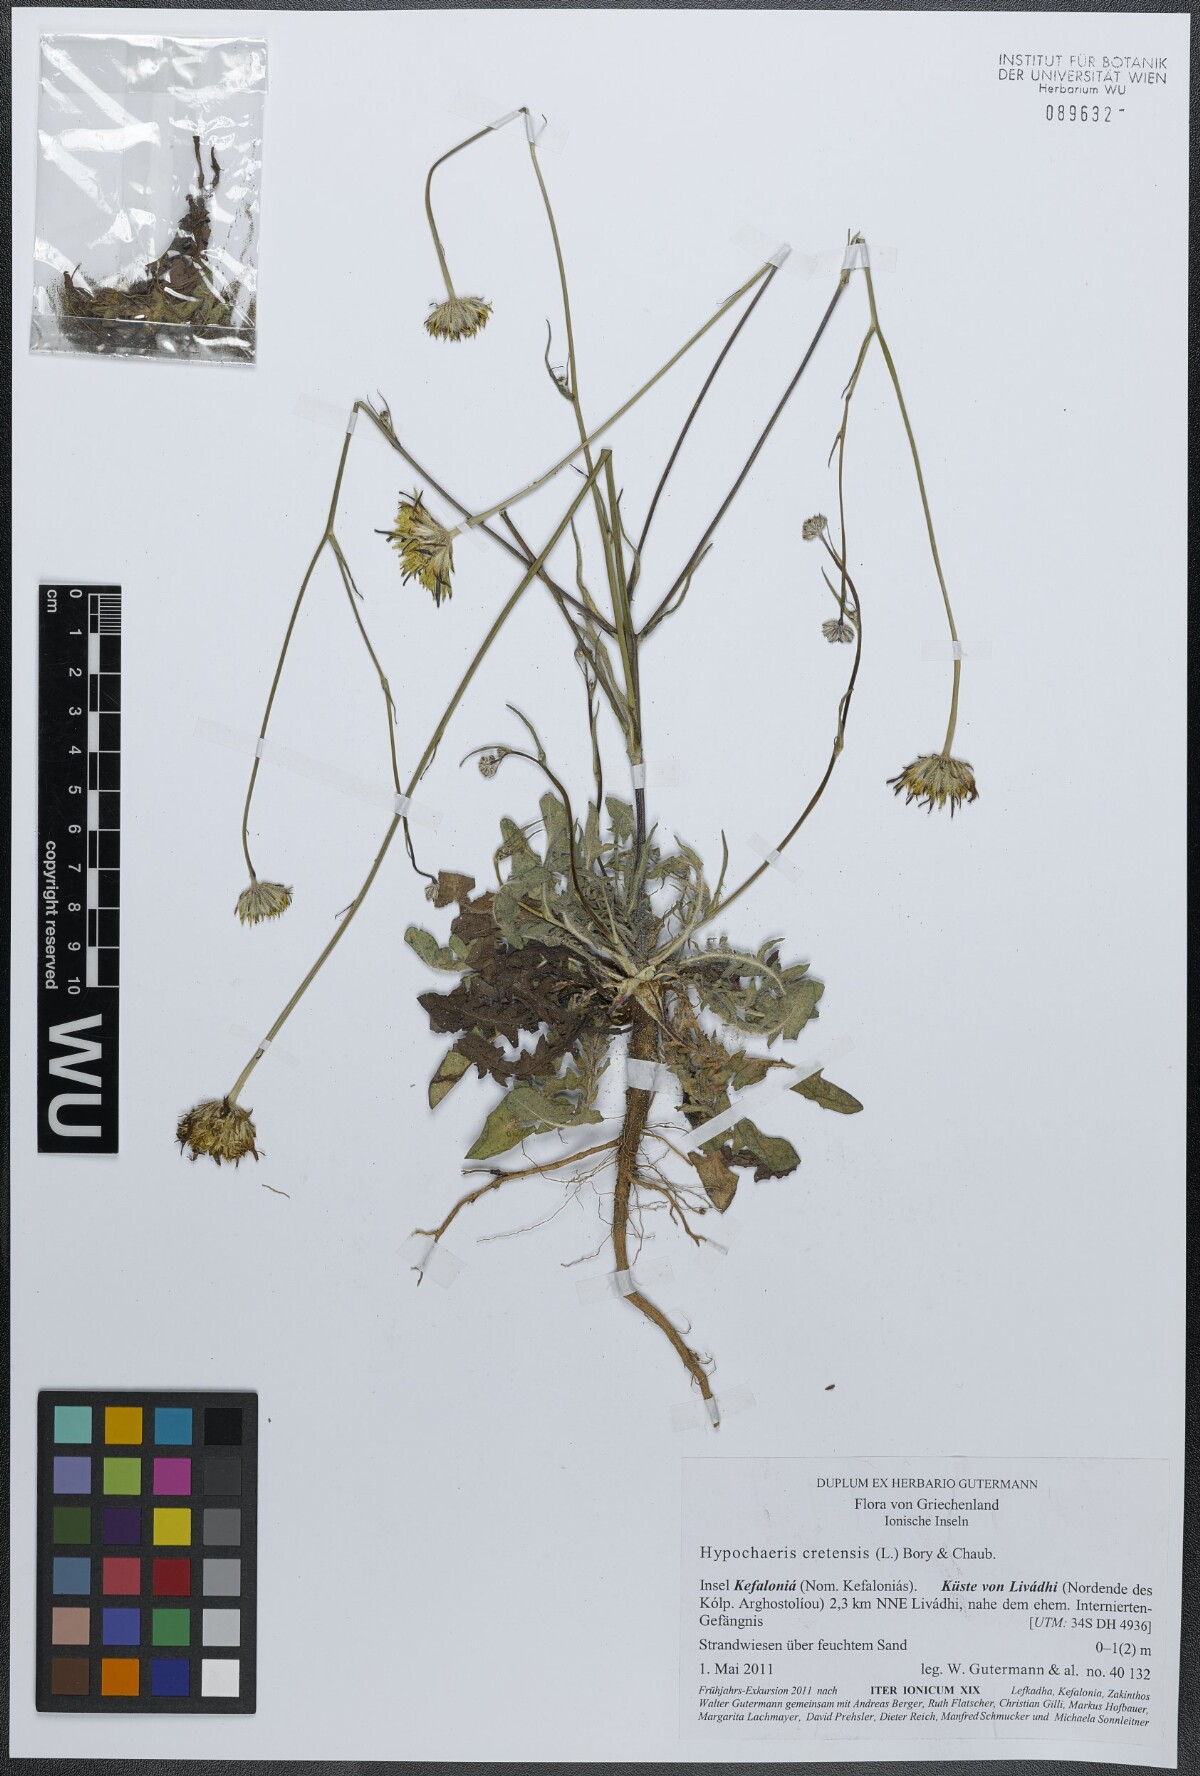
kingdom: Plantae
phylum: Tracheophyta
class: Magnoliopsida
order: Asterales
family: Asteraceae
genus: Hypochaeris
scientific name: Hypochaeris cretensis
